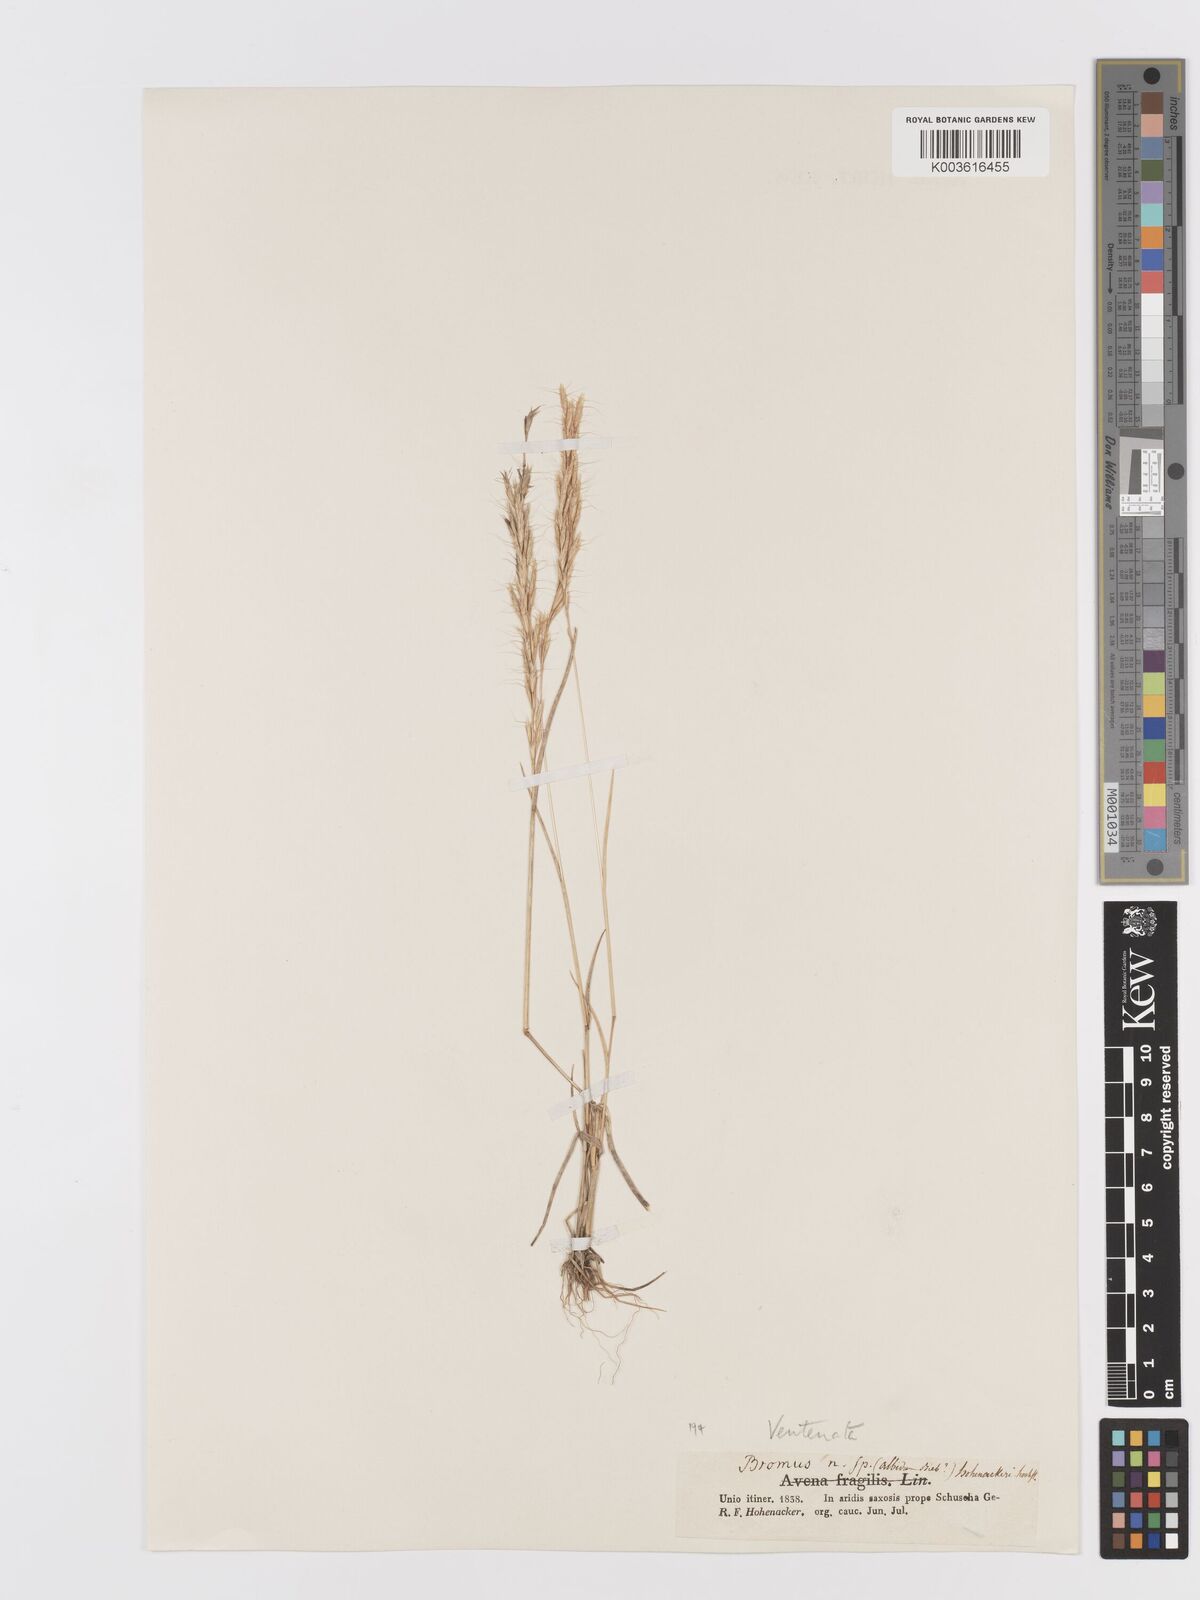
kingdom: Plantae
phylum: Tracheophyta
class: Liliopsida
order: Poales
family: Poaceae
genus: Ventenata
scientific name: Ventenata macra
